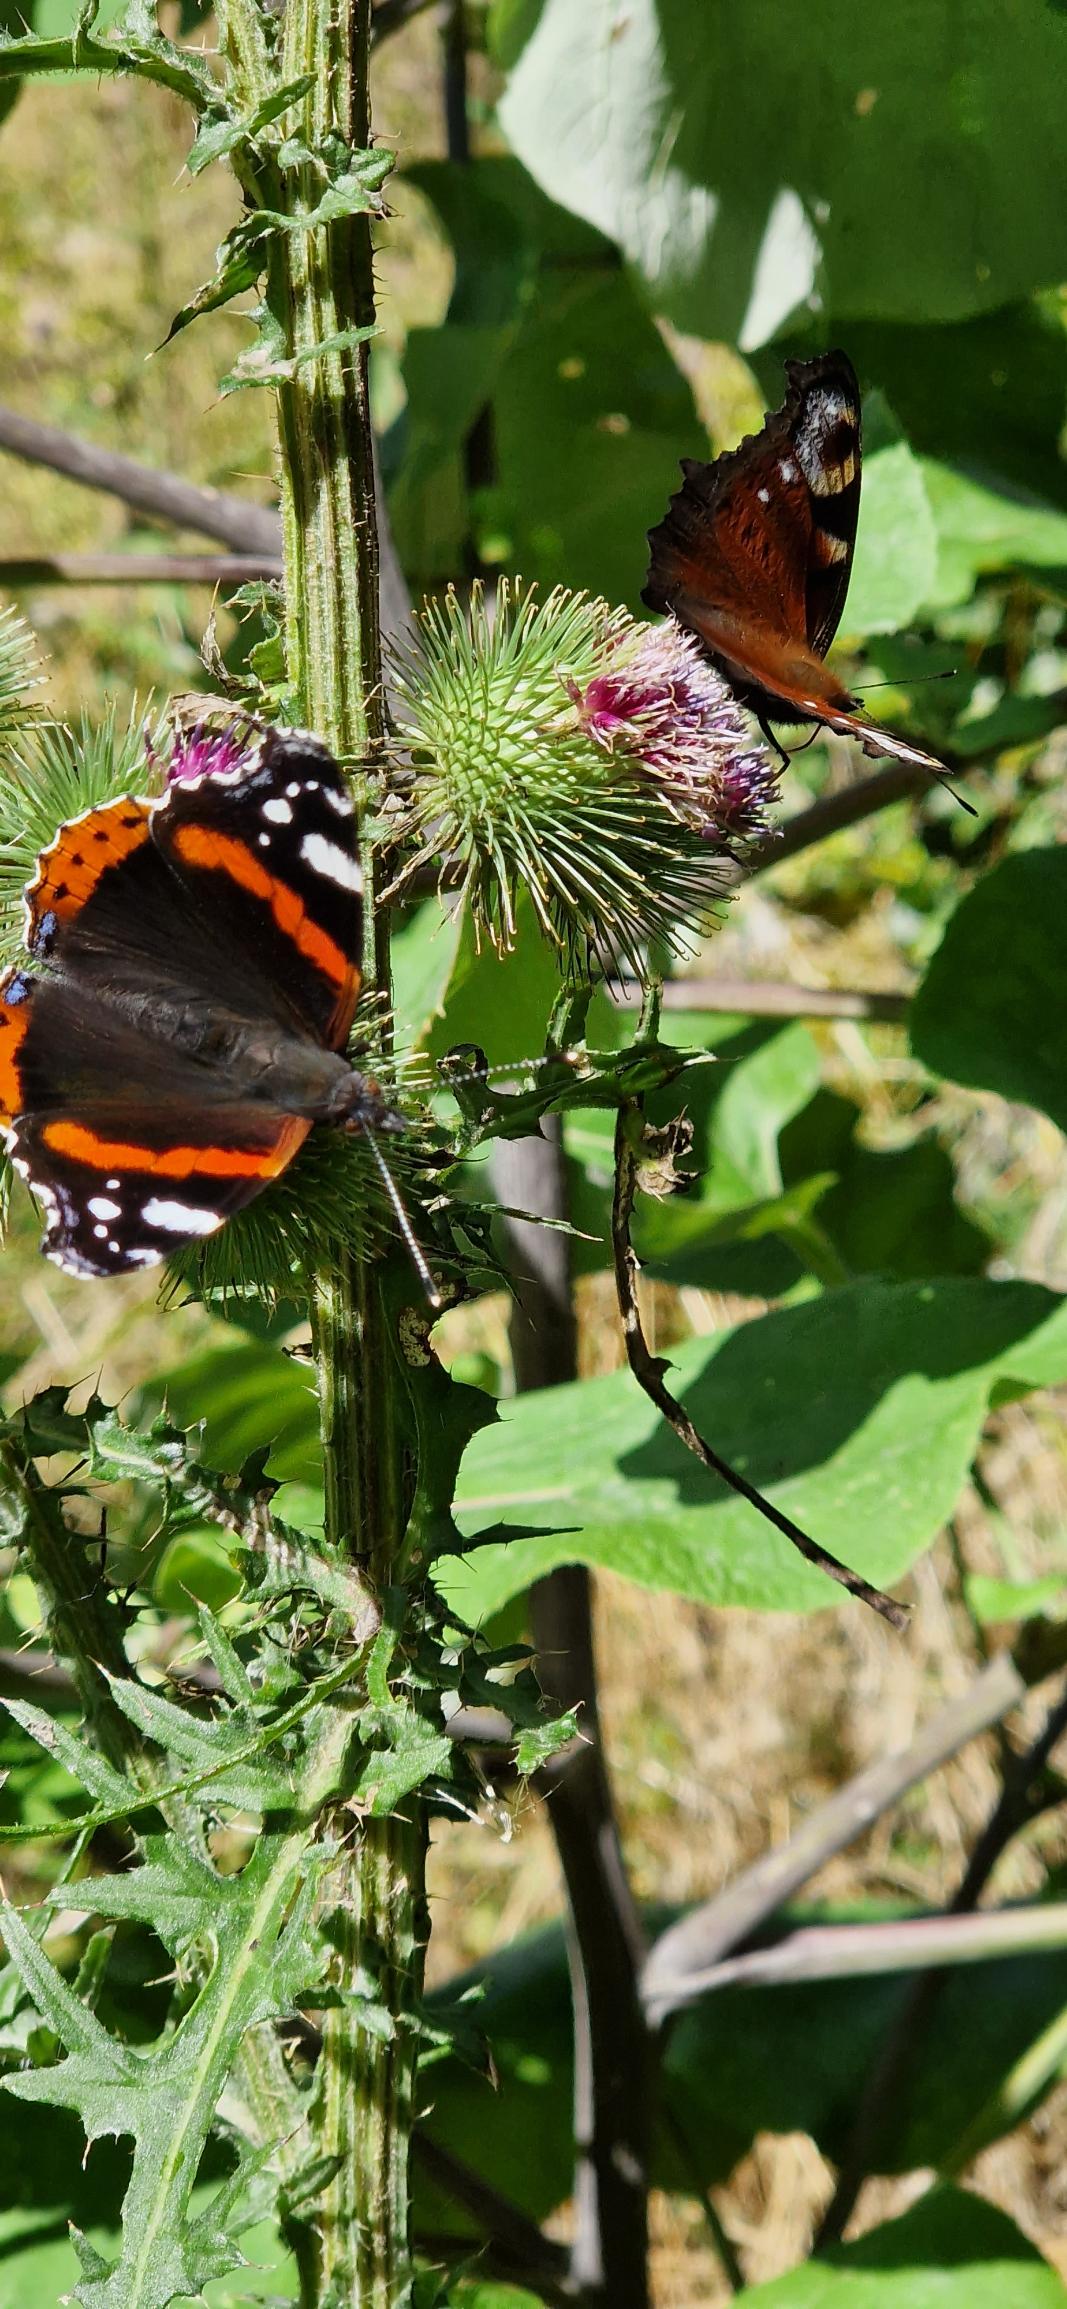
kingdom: Animalia
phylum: Arthropoda
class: Insecta
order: Lepidoptera
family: Nymphalidae
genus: Vanessa
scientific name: Vanessa atalanta
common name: Admiral
